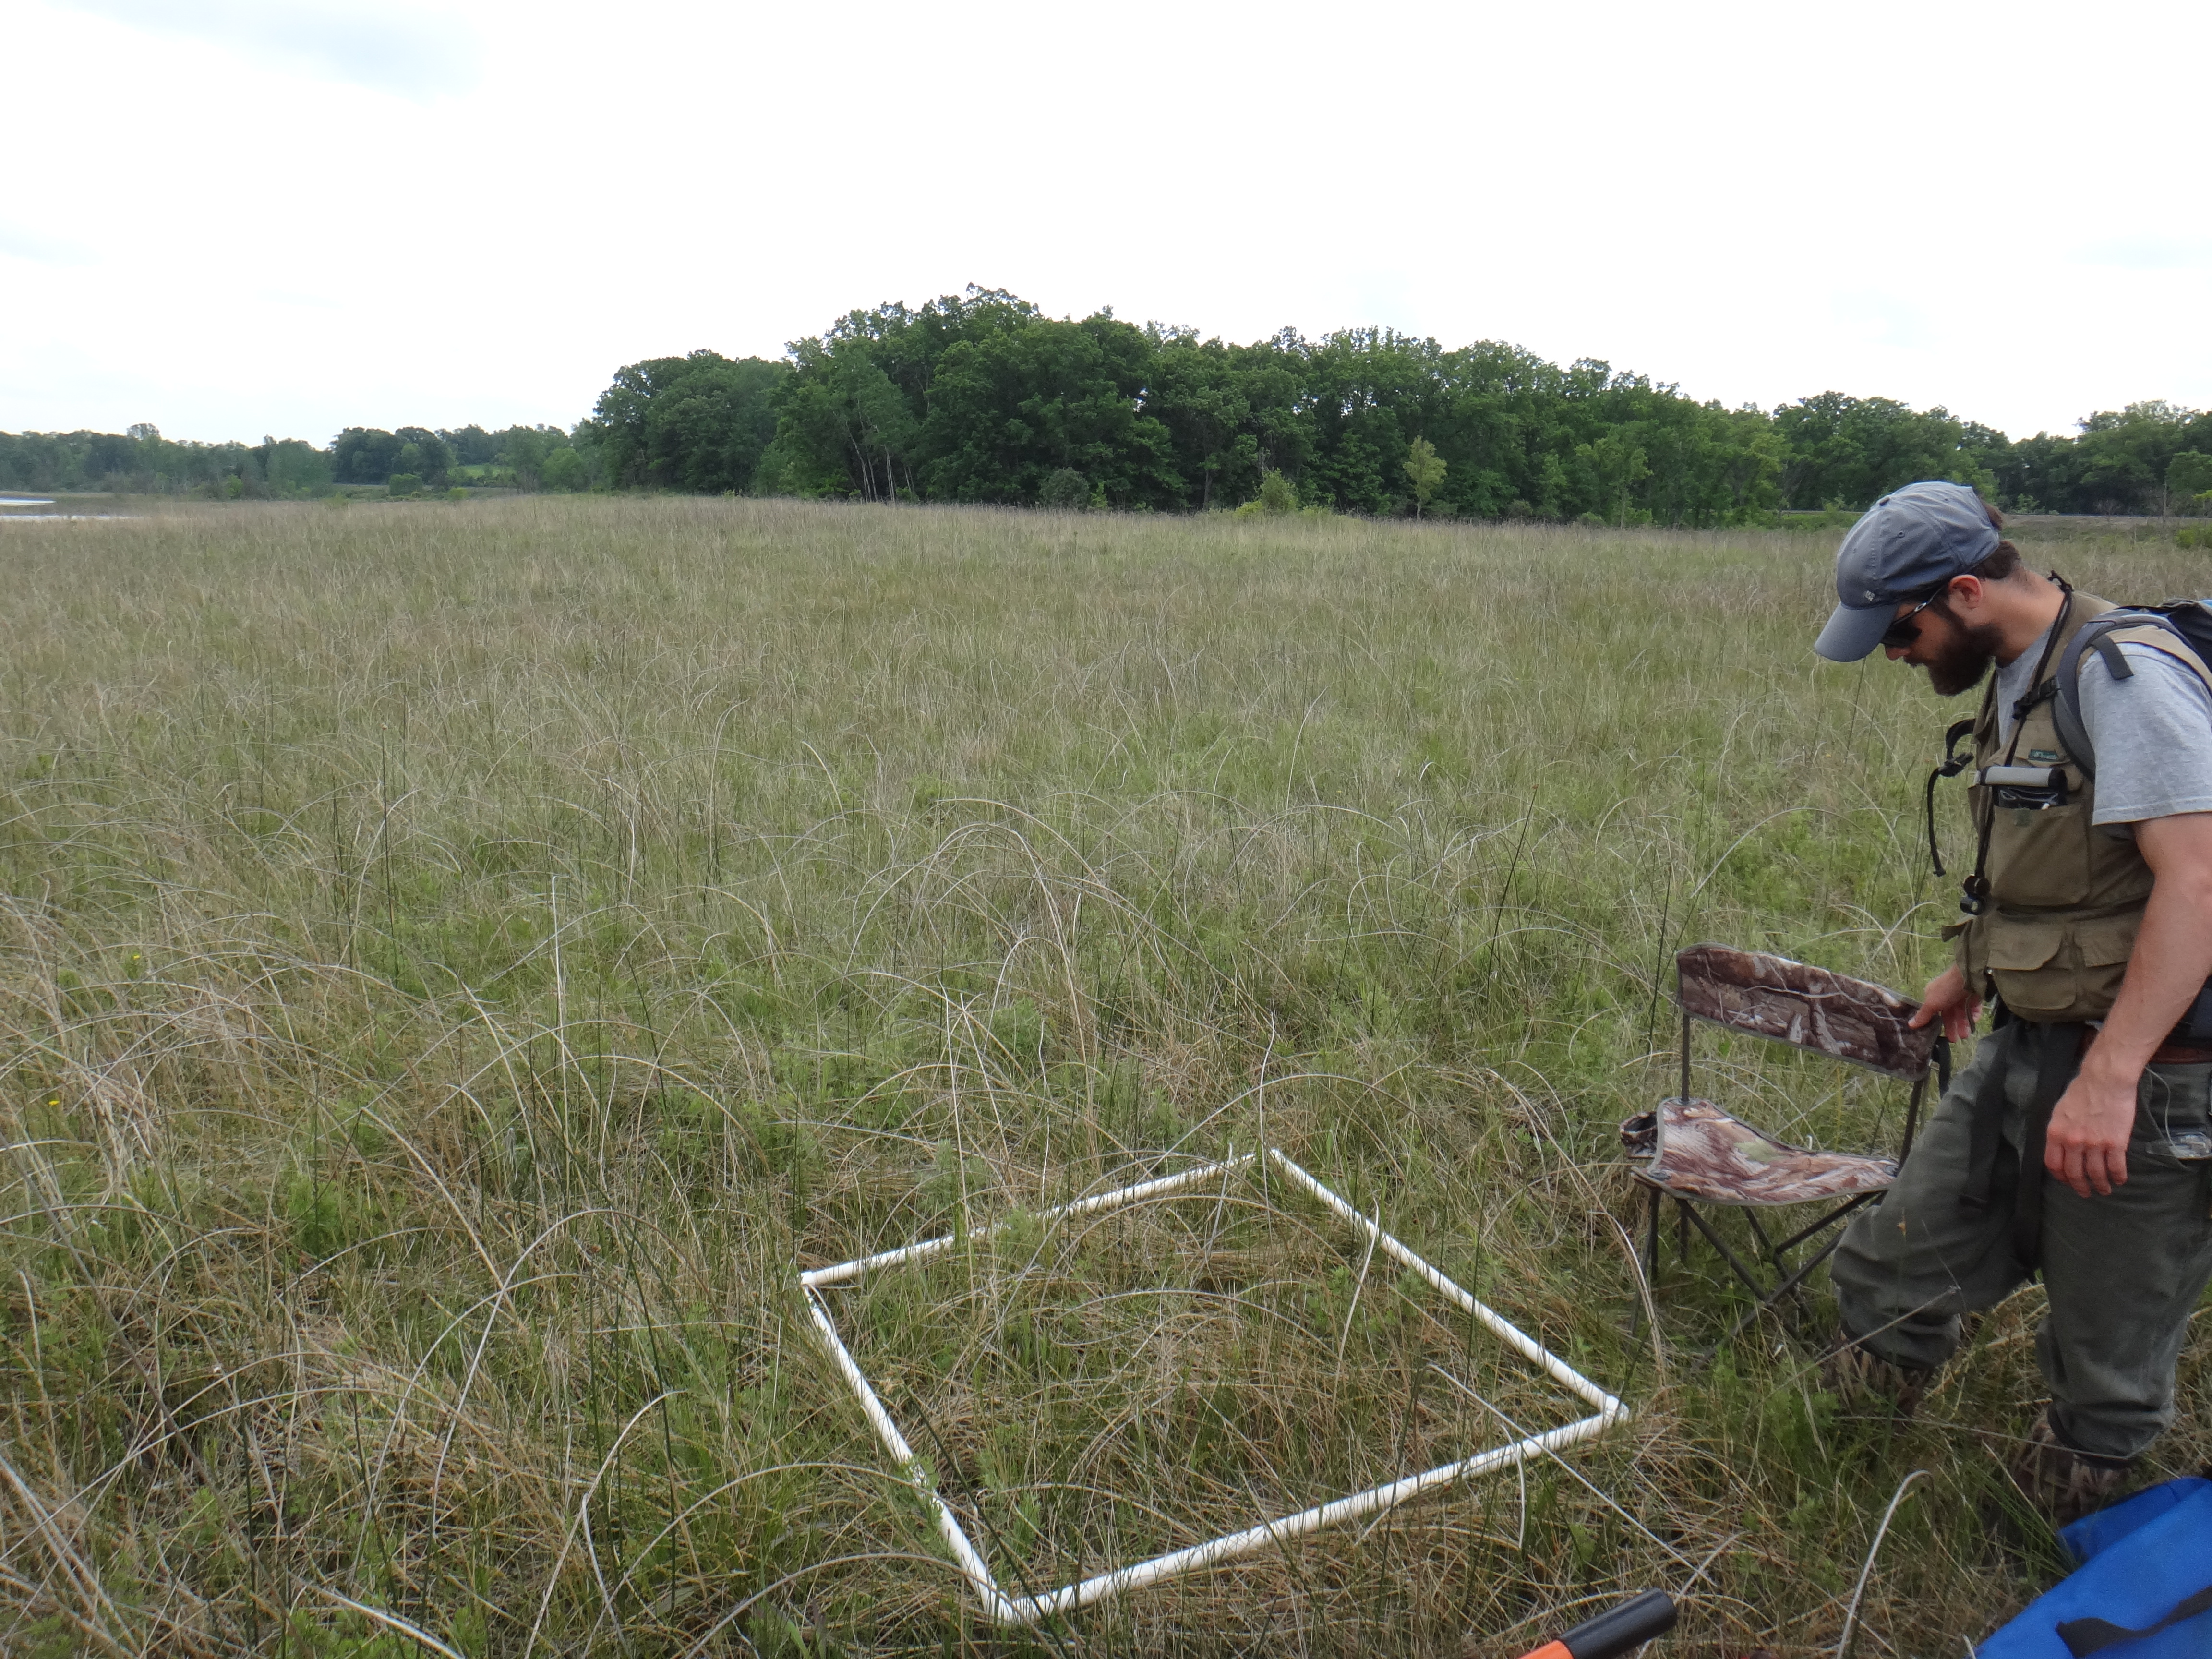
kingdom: Plantae
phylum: Tracheophyta
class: Magnoliopsida
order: Celastrales
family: Parnassiaceae
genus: Parnassia
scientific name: Parnassia glauca
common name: American grass-of-parnassus
